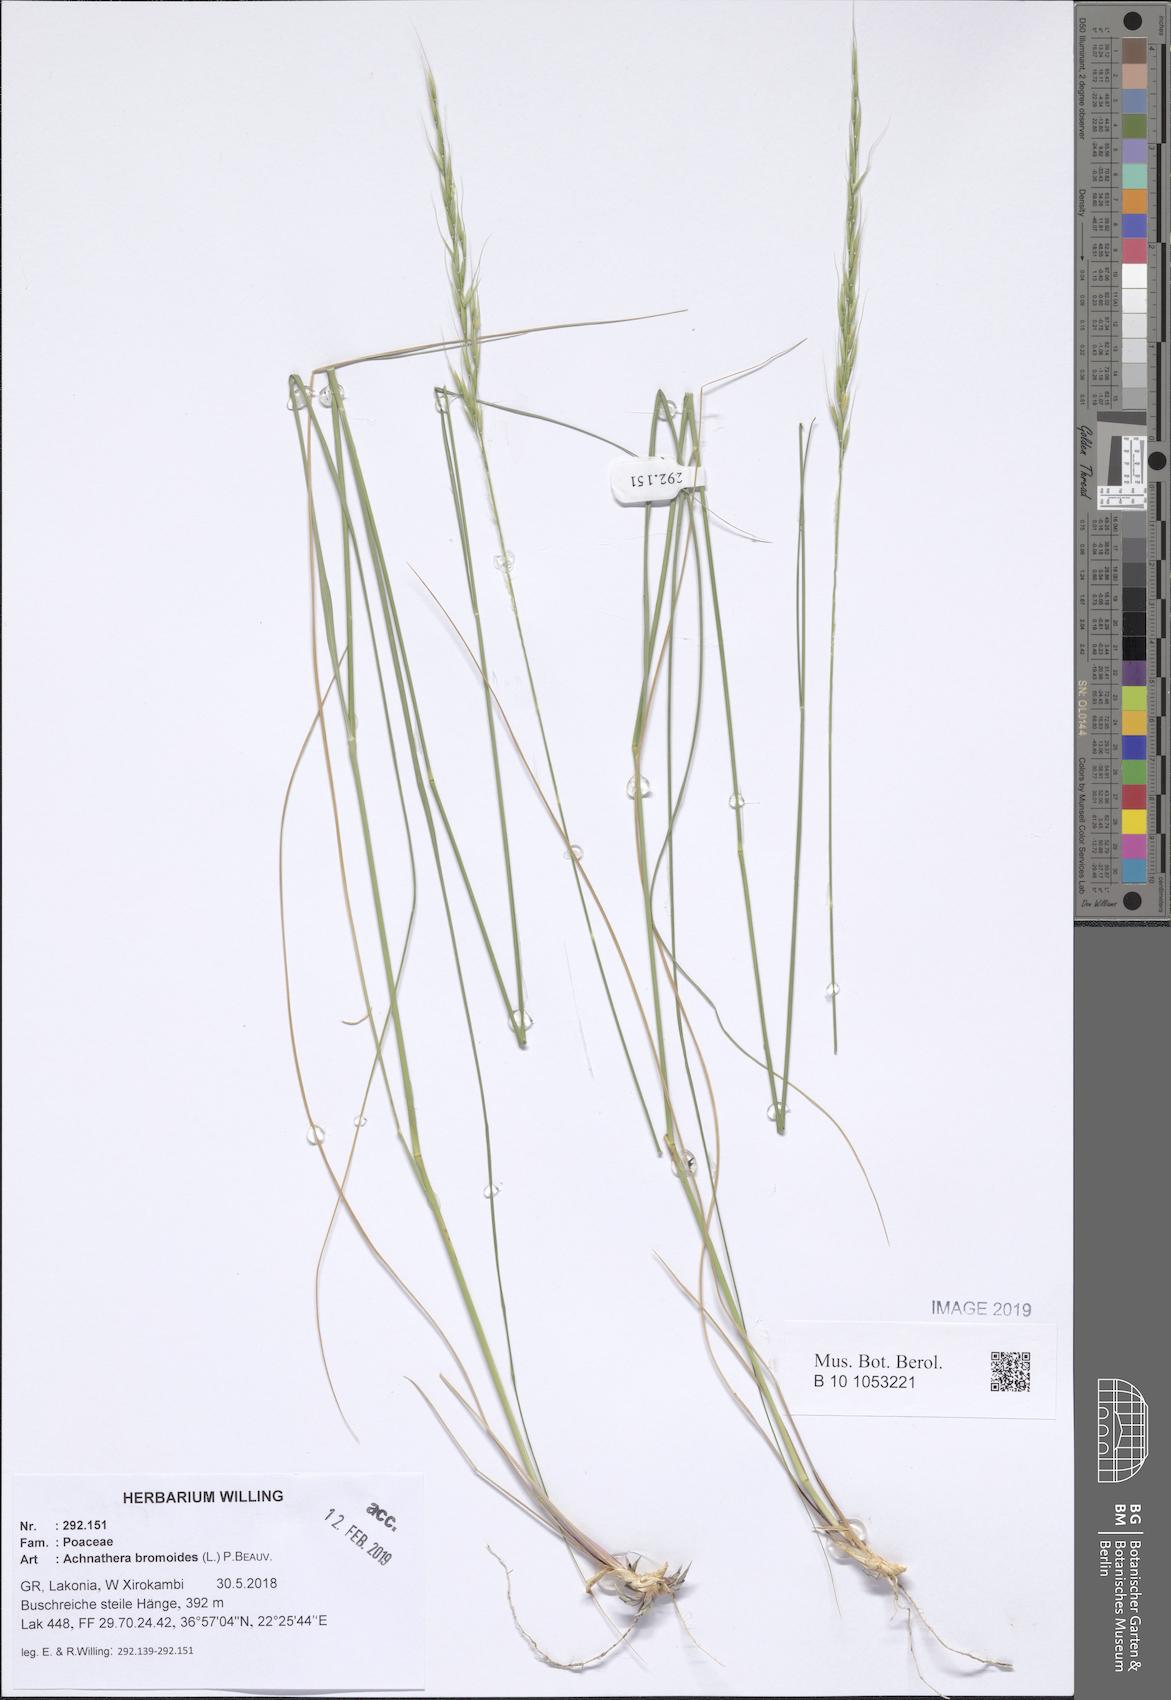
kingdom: Plantae
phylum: Tracheophyta
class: Liliopsida
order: Poales
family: Poaceae
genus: Achnatherum
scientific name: Achnatherum bromoides
